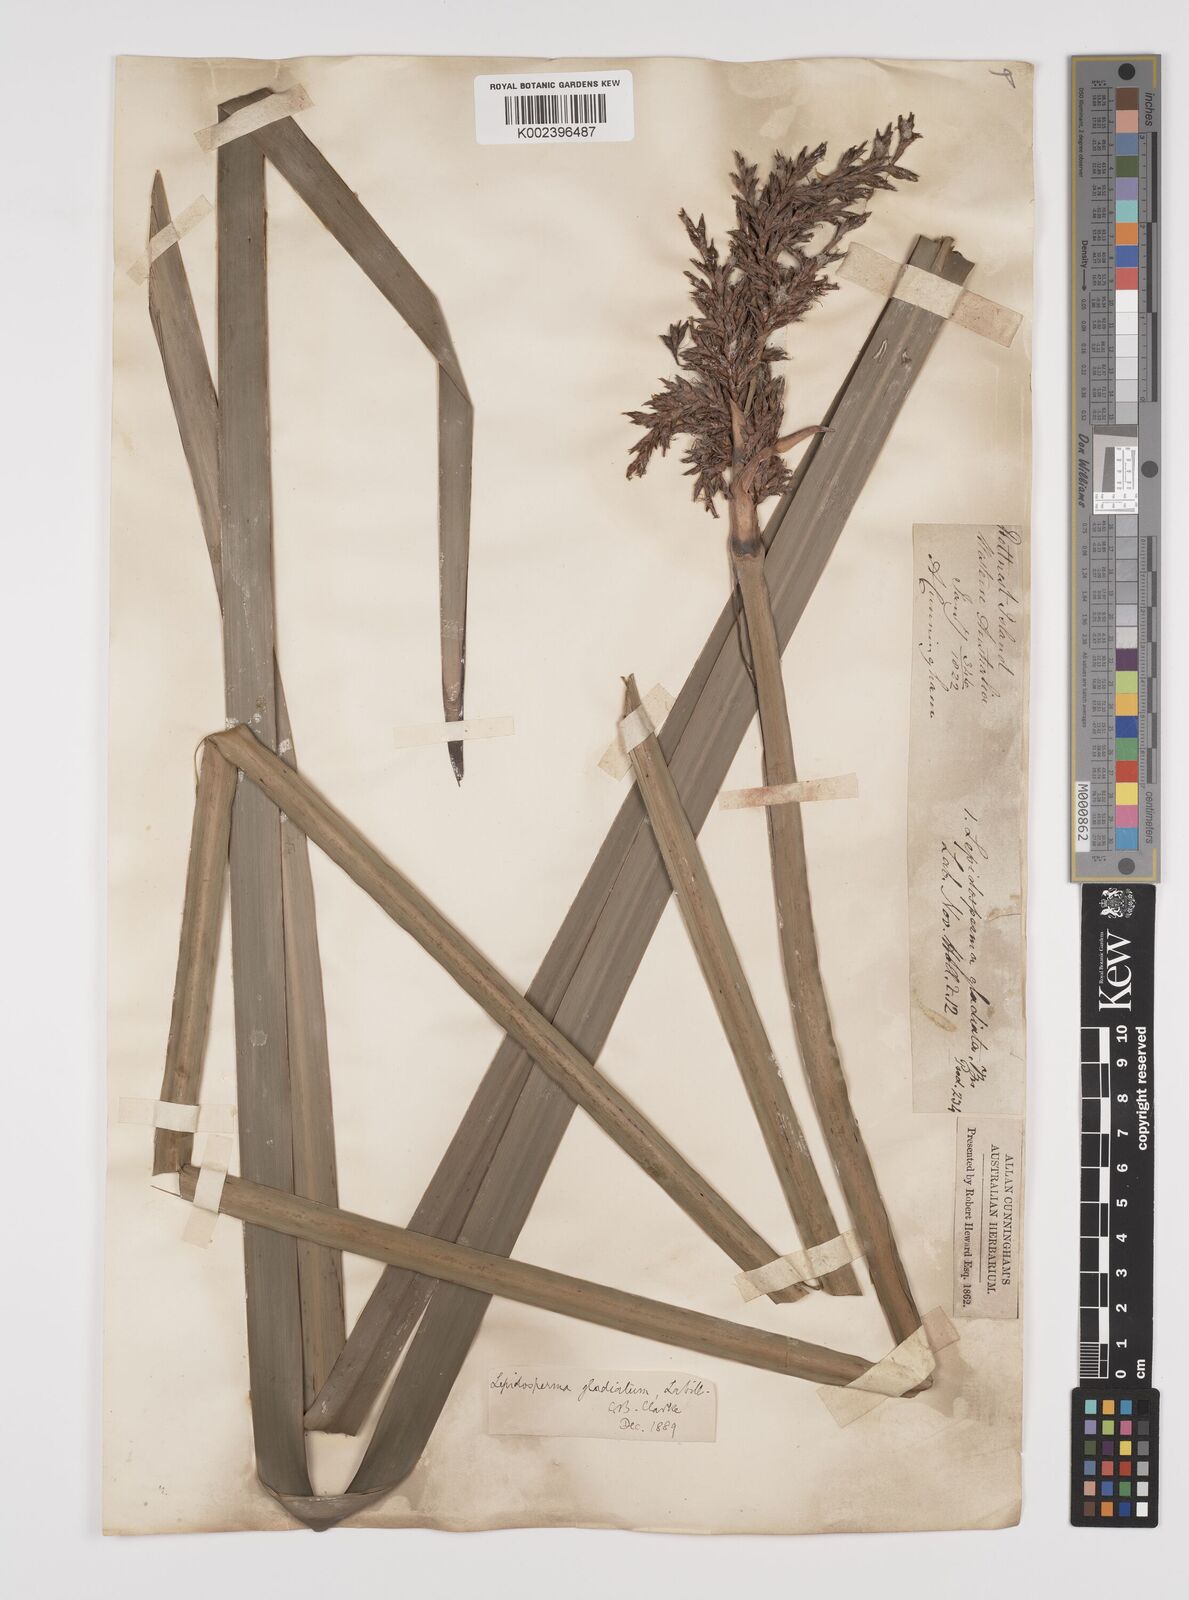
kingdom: Plantae
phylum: Tracheophyta
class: Liliopsida
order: Poales
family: Cyperaceae
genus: Lepidosperma
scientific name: Lepidosperma gladiatum
